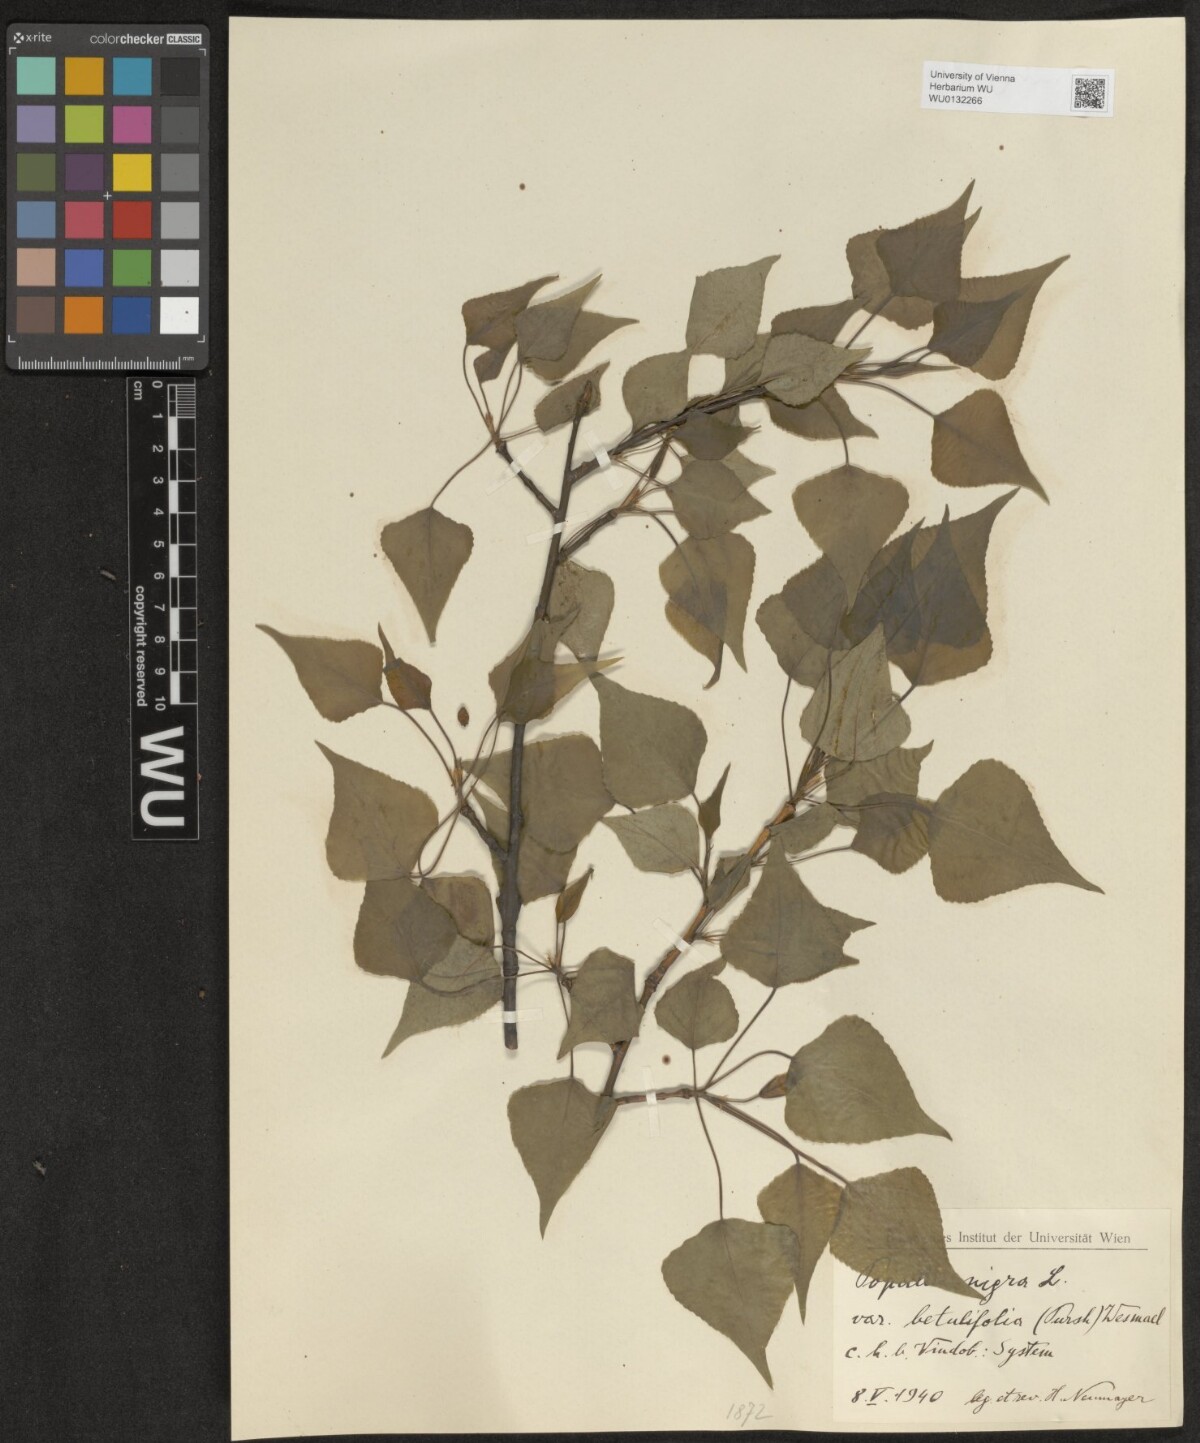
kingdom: Plantae
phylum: Tracheophyta
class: Magnoliopsida
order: Malpighiales
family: Salicaceae
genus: Populus
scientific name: Populus nigra
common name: Black poplar
